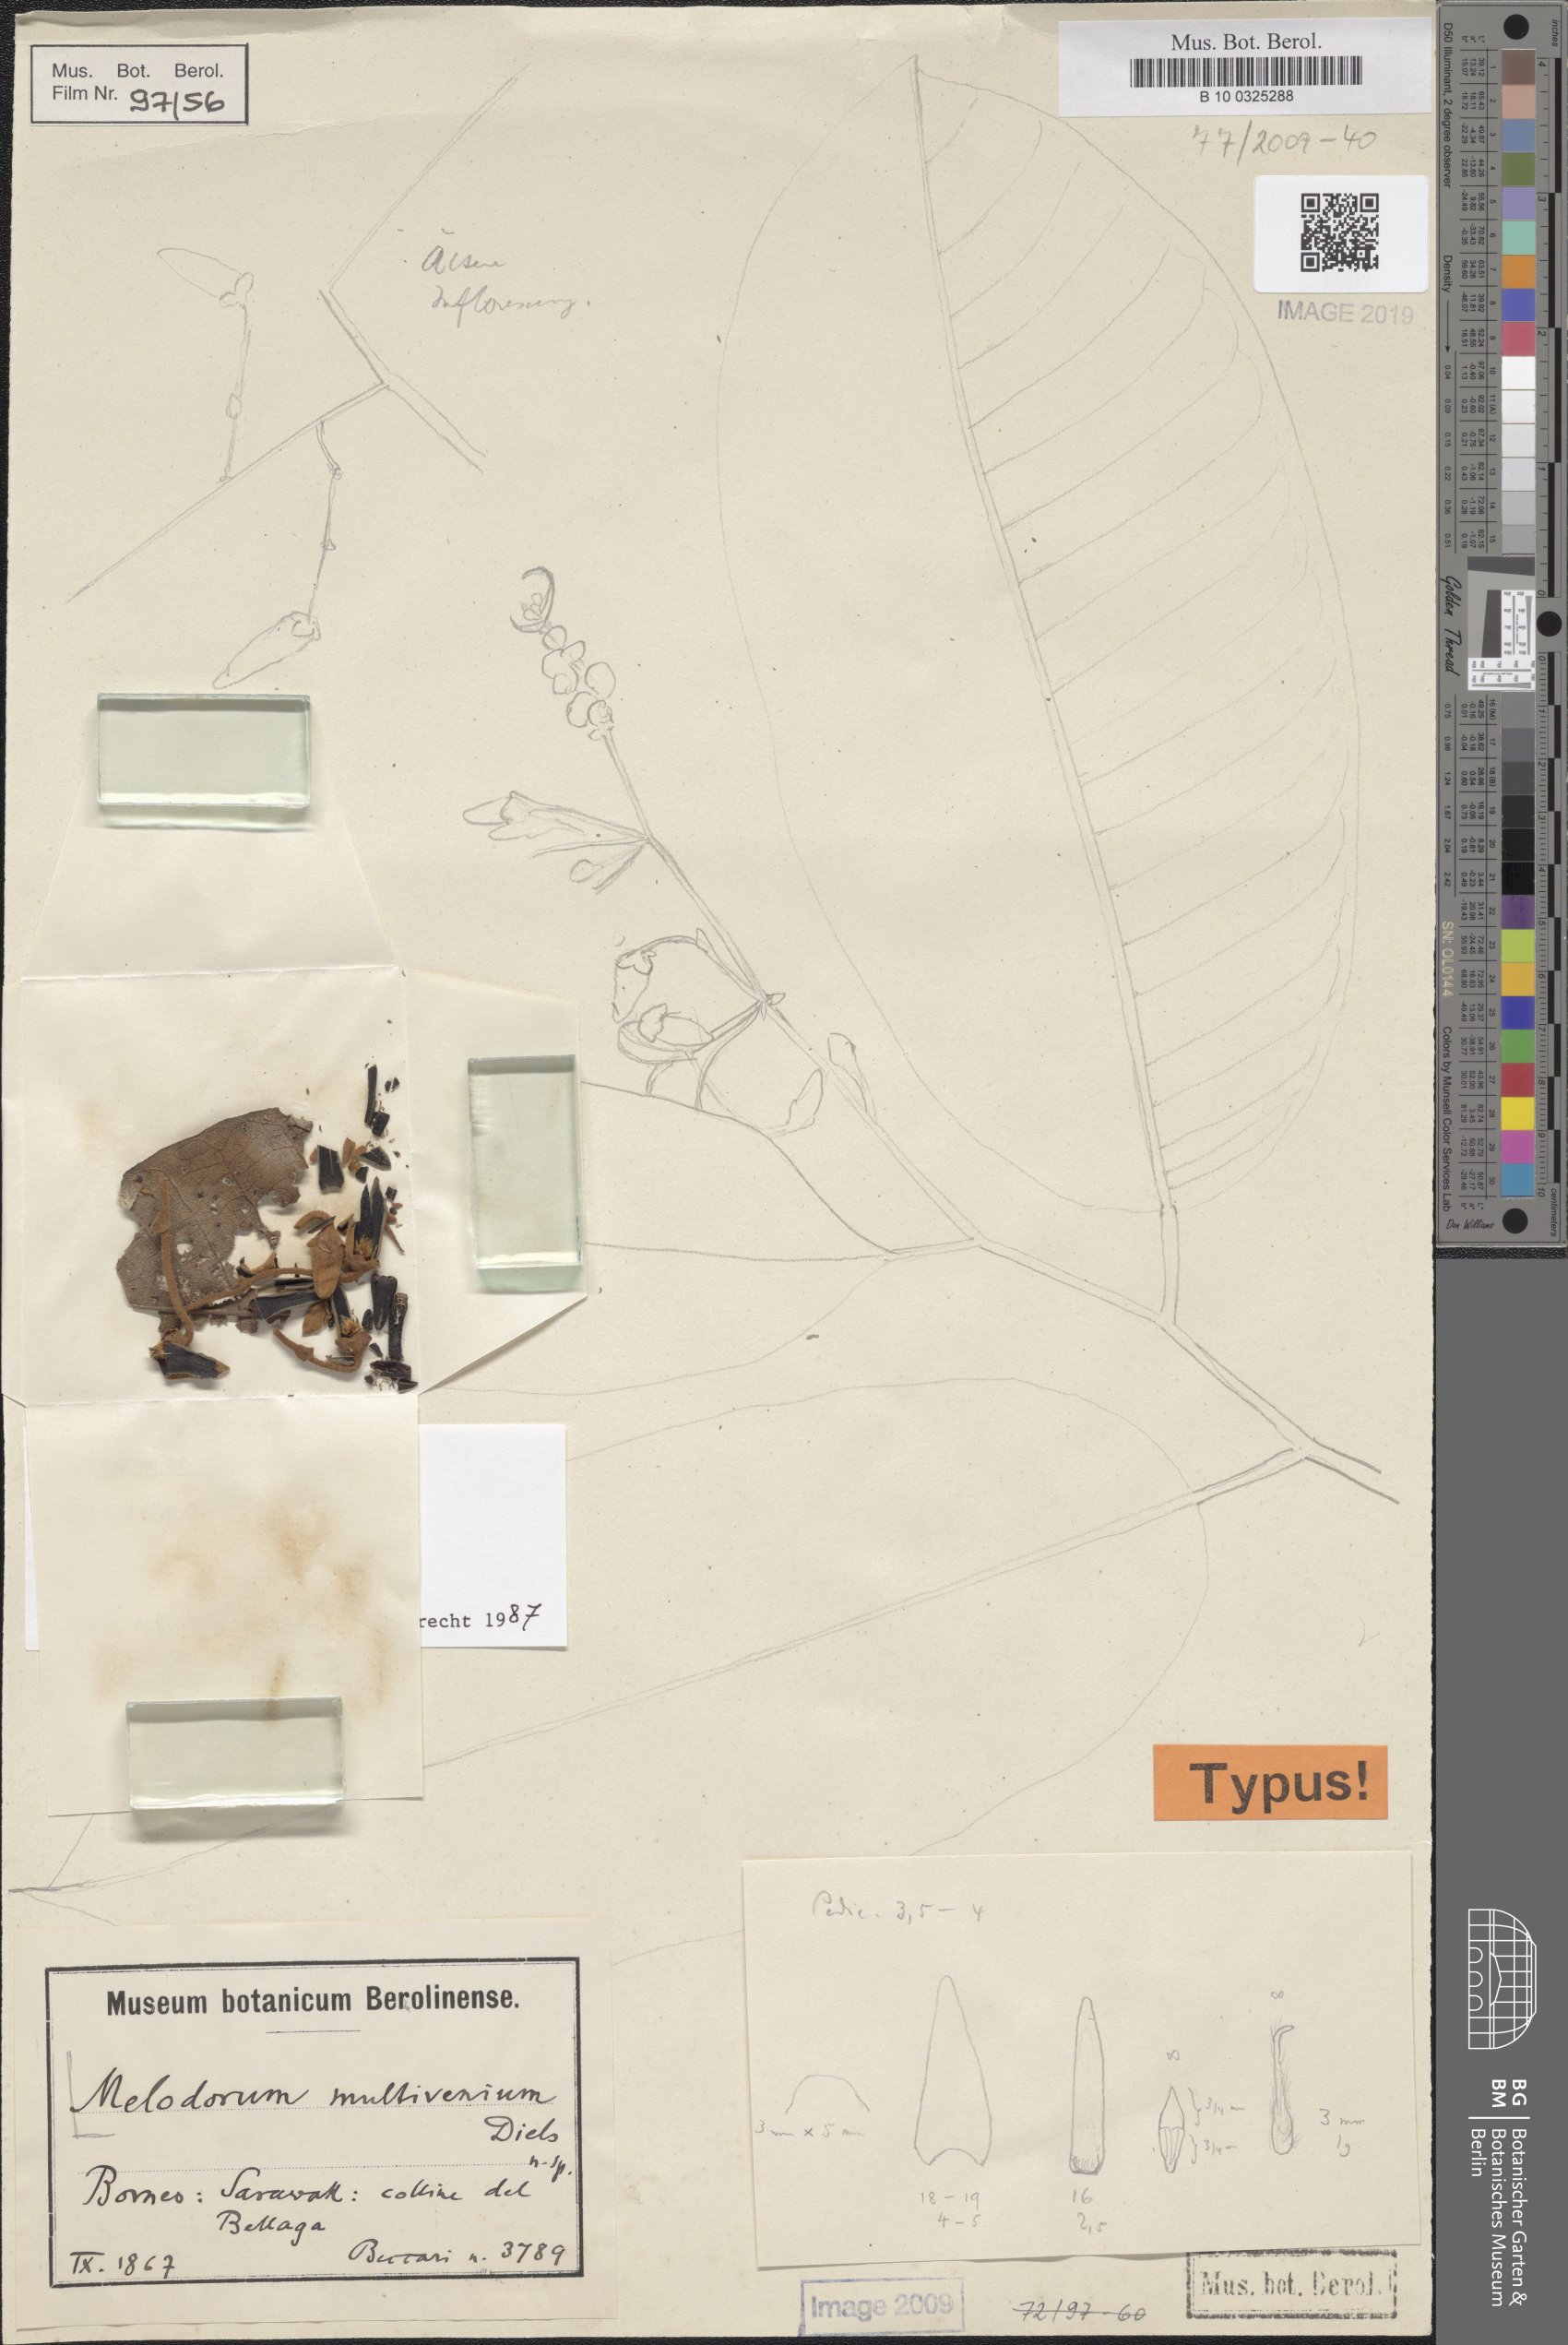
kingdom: Plantae
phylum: Tracheophyta
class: Magnoliopsida
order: Magnoliales
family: Annonaceae
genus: Fissistigma
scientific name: Fissistigma
